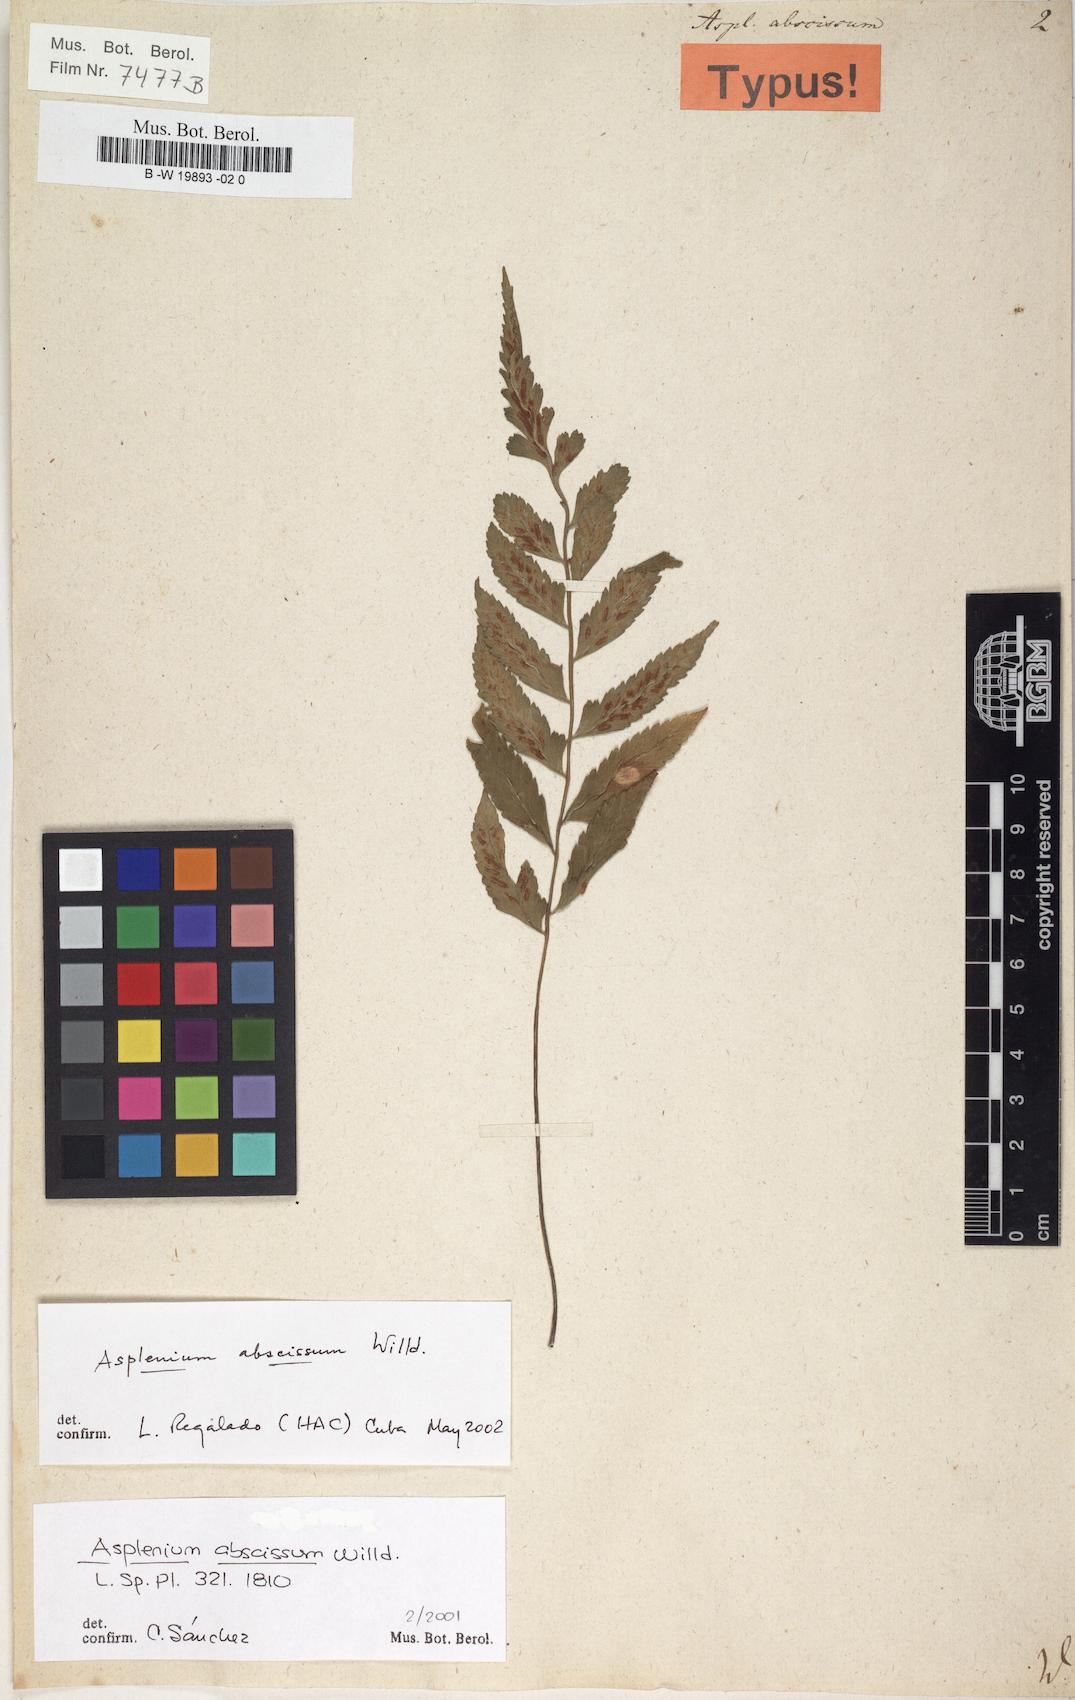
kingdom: Plantae
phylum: Tracheophyta
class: Polypodiopsida
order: Polypodiales
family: Aspleniaceae
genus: Asplenium
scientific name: Asplenium abscissum
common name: Cutleaf spleenwort
